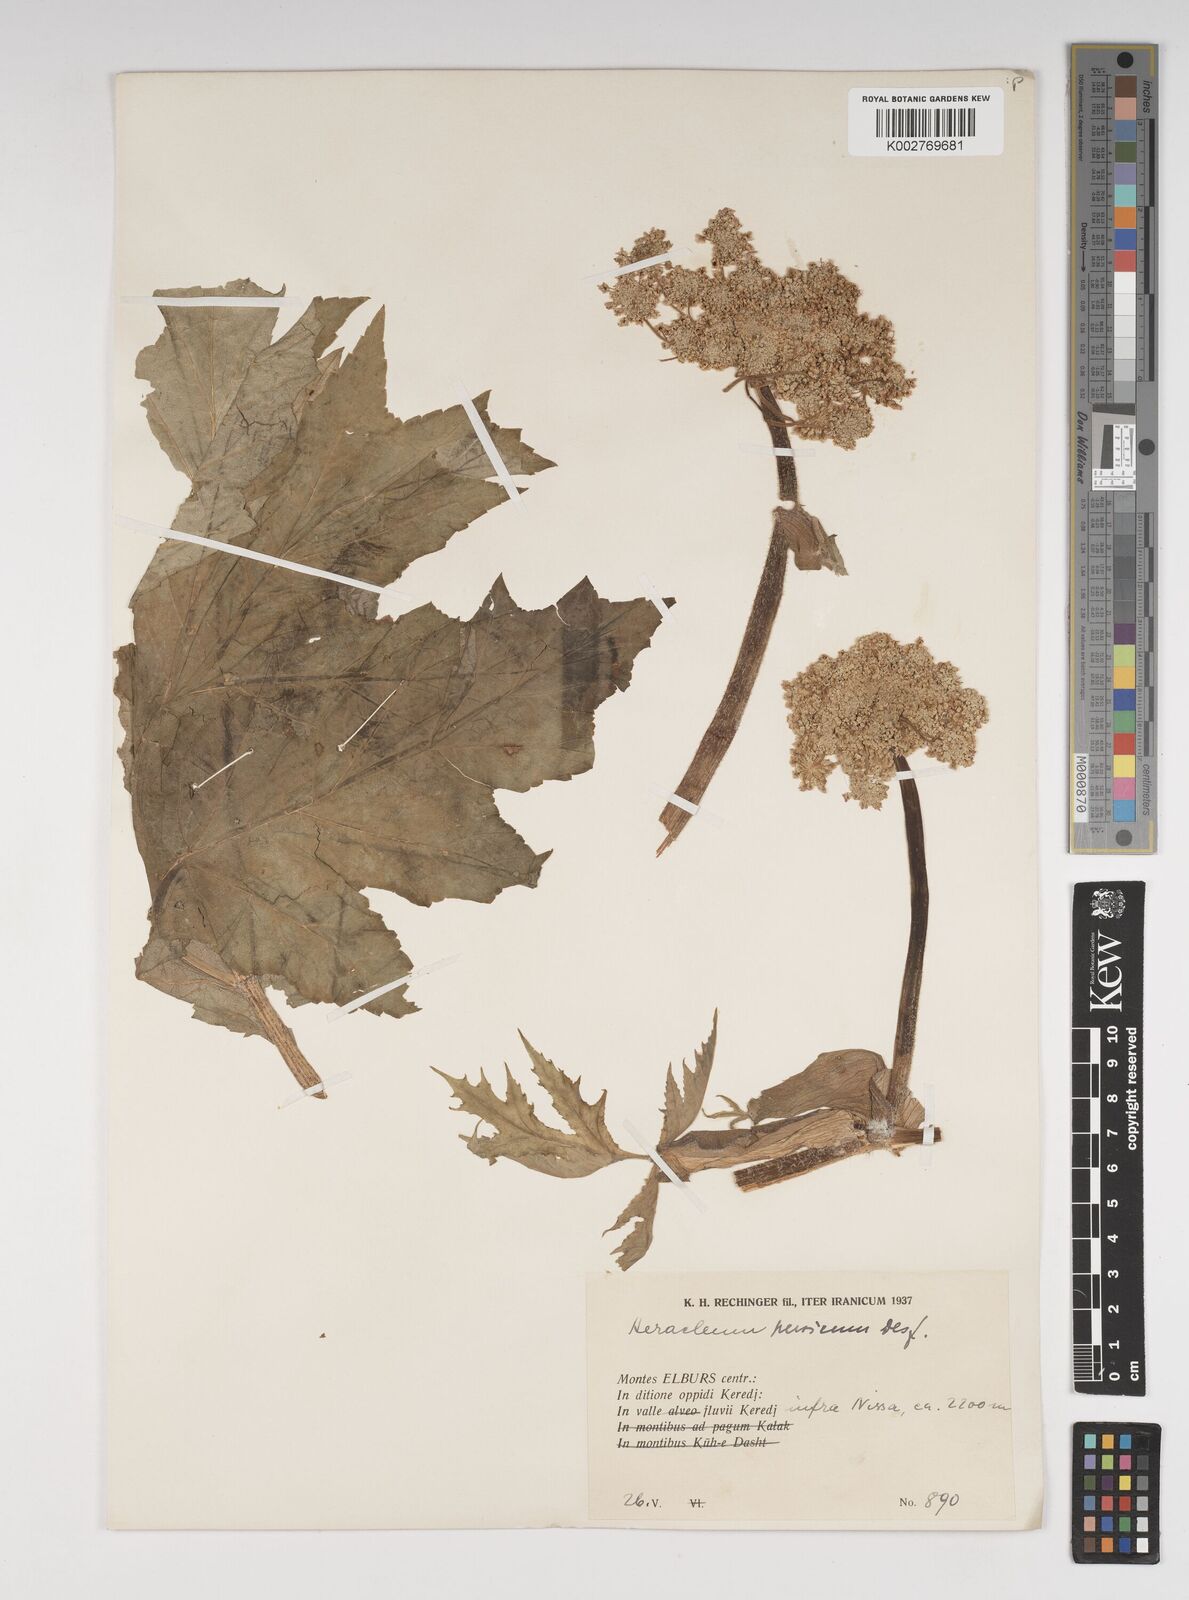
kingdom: Plantae
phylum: Tracheophyta
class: Magnoliopsida
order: Apiales
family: Apiaceae
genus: Heracleum
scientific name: Heracleum persicum
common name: Persian hogweed
